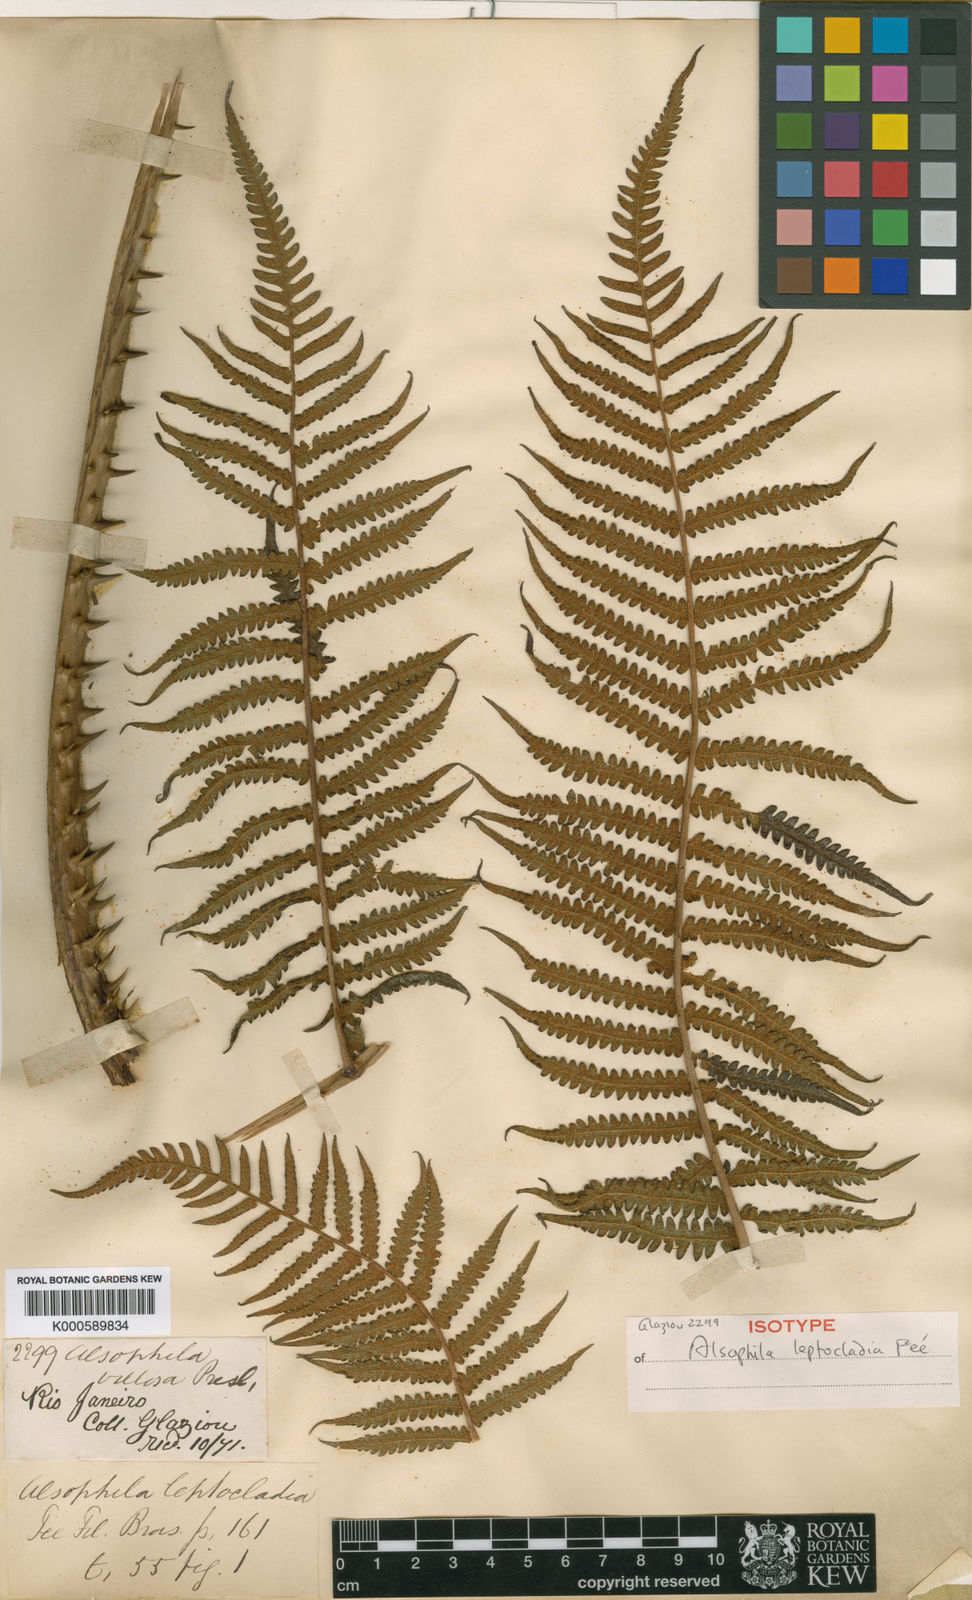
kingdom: Plantae
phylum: Tracheophyta
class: Polypodiopsida
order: Cyatheales
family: Cyatheaceae
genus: Cyathea
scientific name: Cyathea atrovirens
